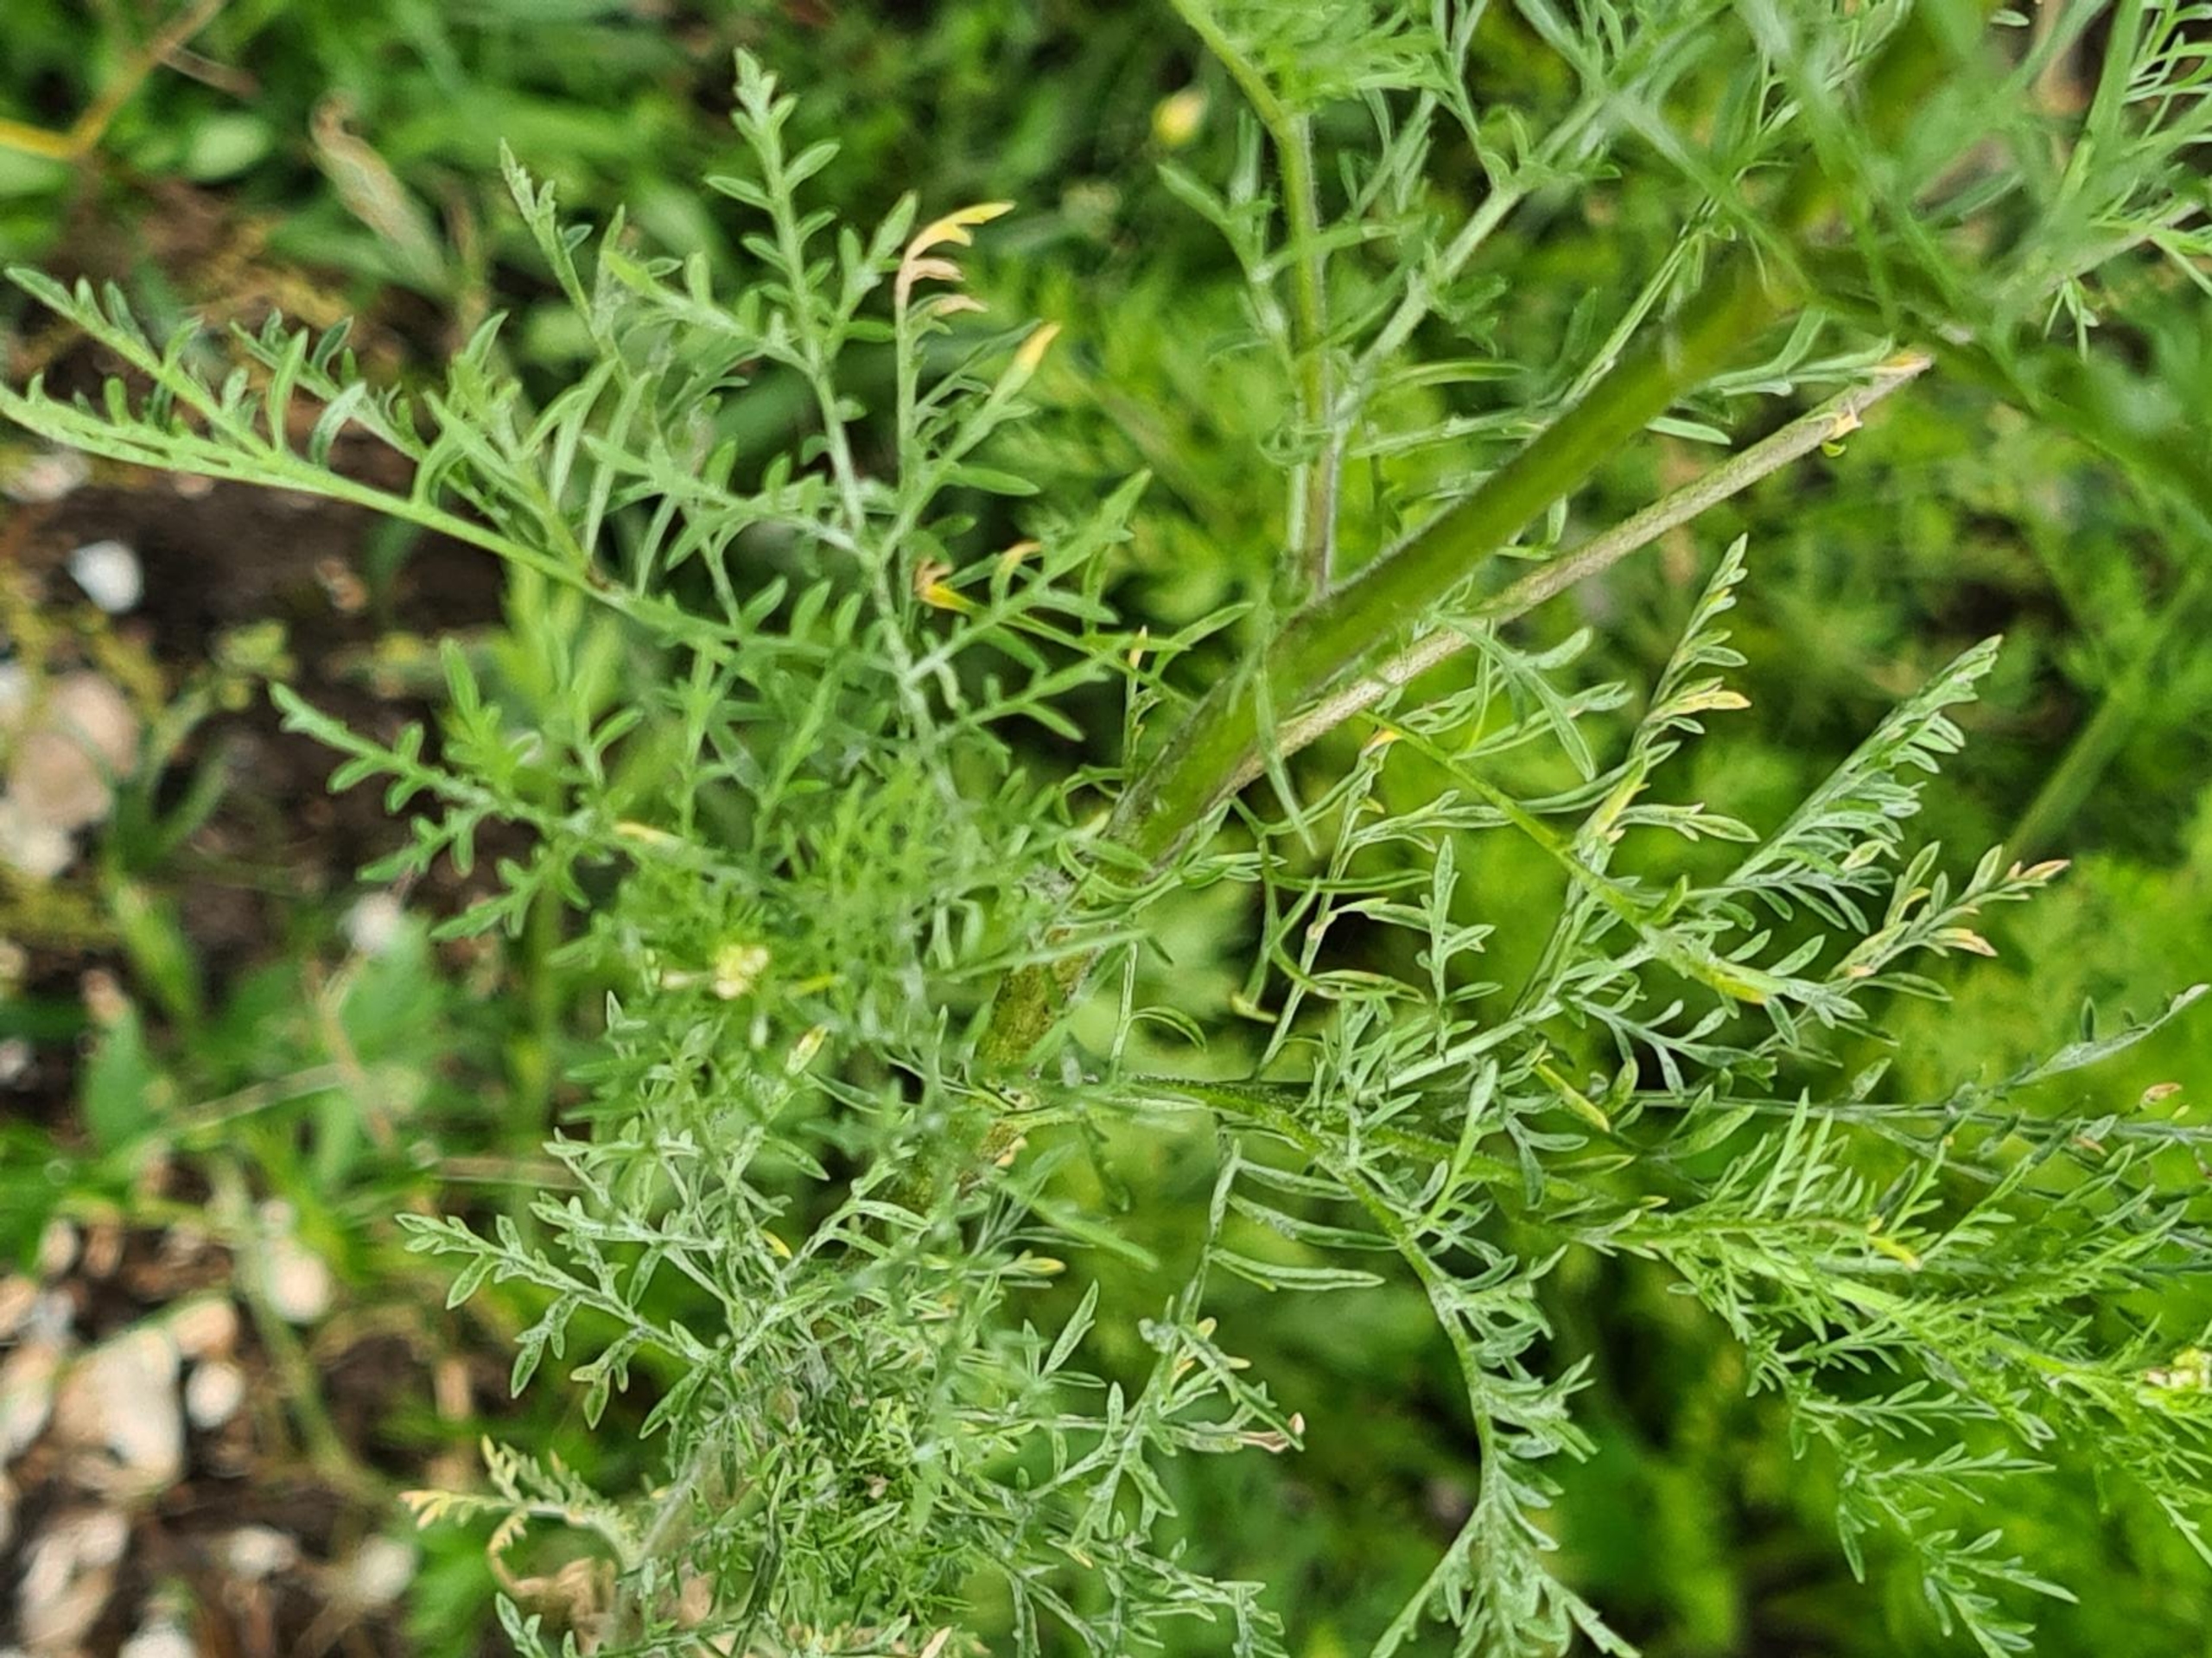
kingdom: Plantae
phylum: Tracheophyta
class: Magnoliopsida
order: Brassicales
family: Brassicaceae
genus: Descurainia
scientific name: Descurainia sophia
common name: Finbladet vejsennep
